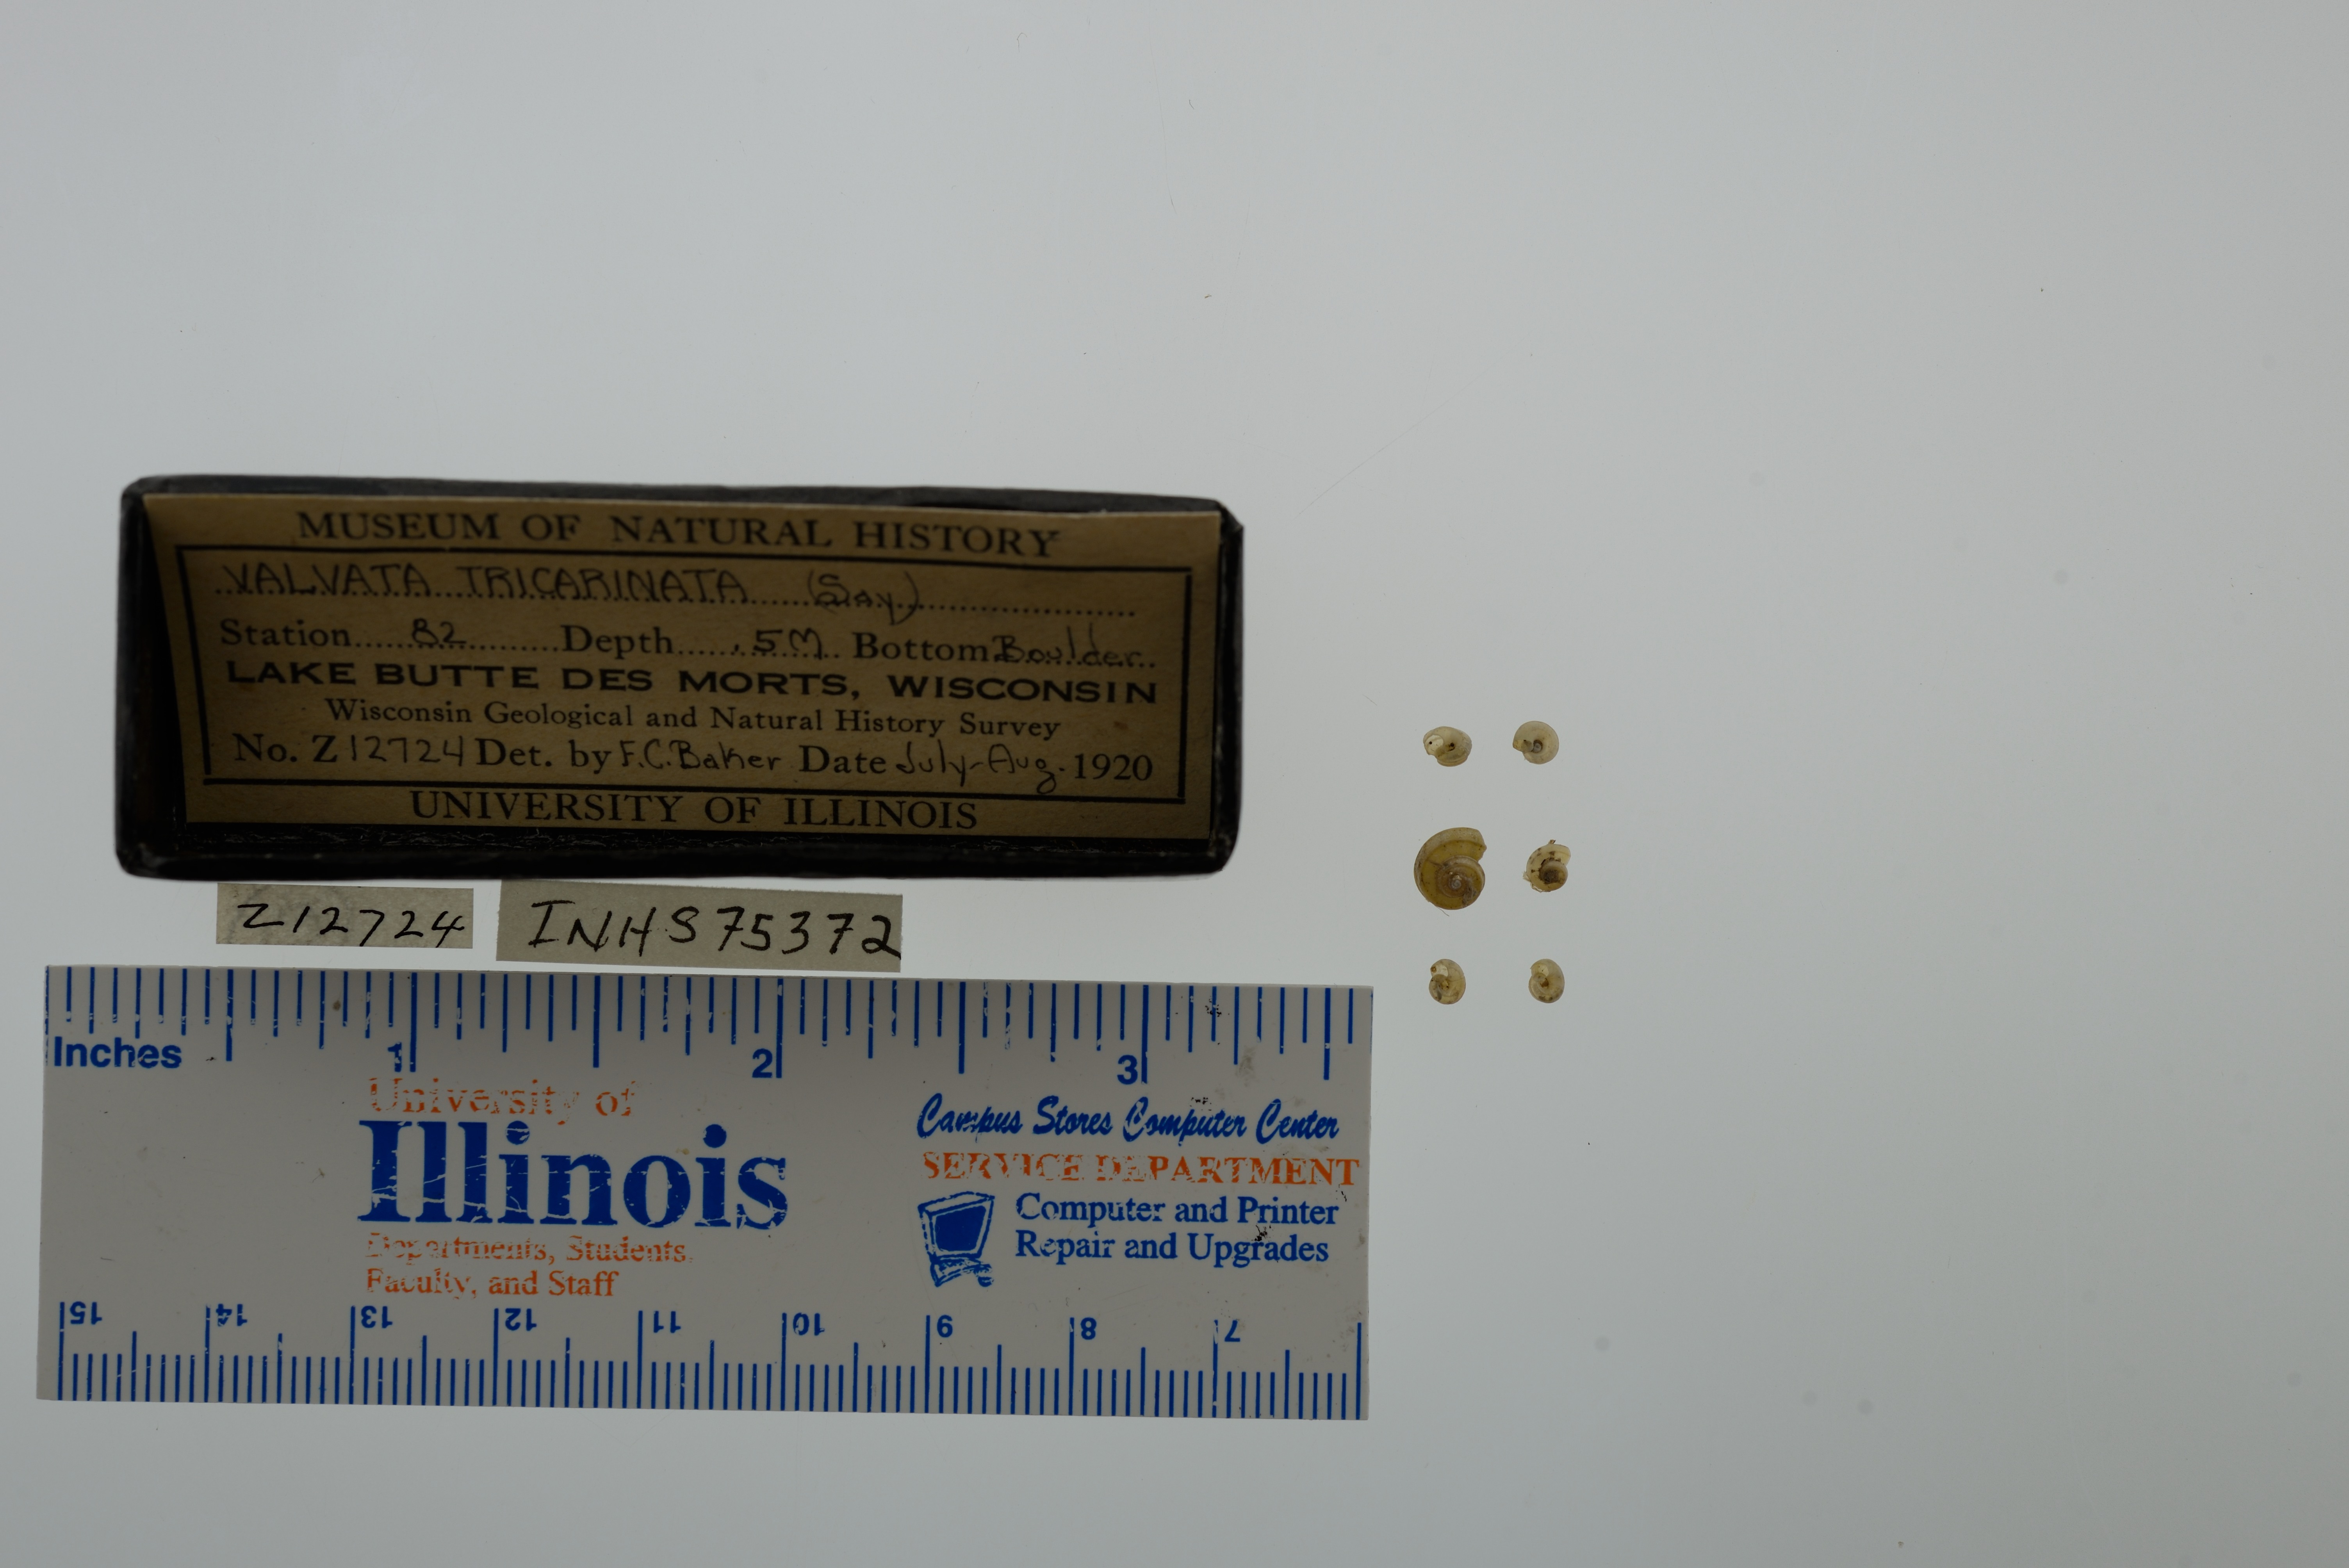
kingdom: Animalia
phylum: Mollusca
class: Gastropoda
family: Valvatidae
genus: Valvata
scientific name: Valvata tricarinata
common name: Three-ridge valvata
